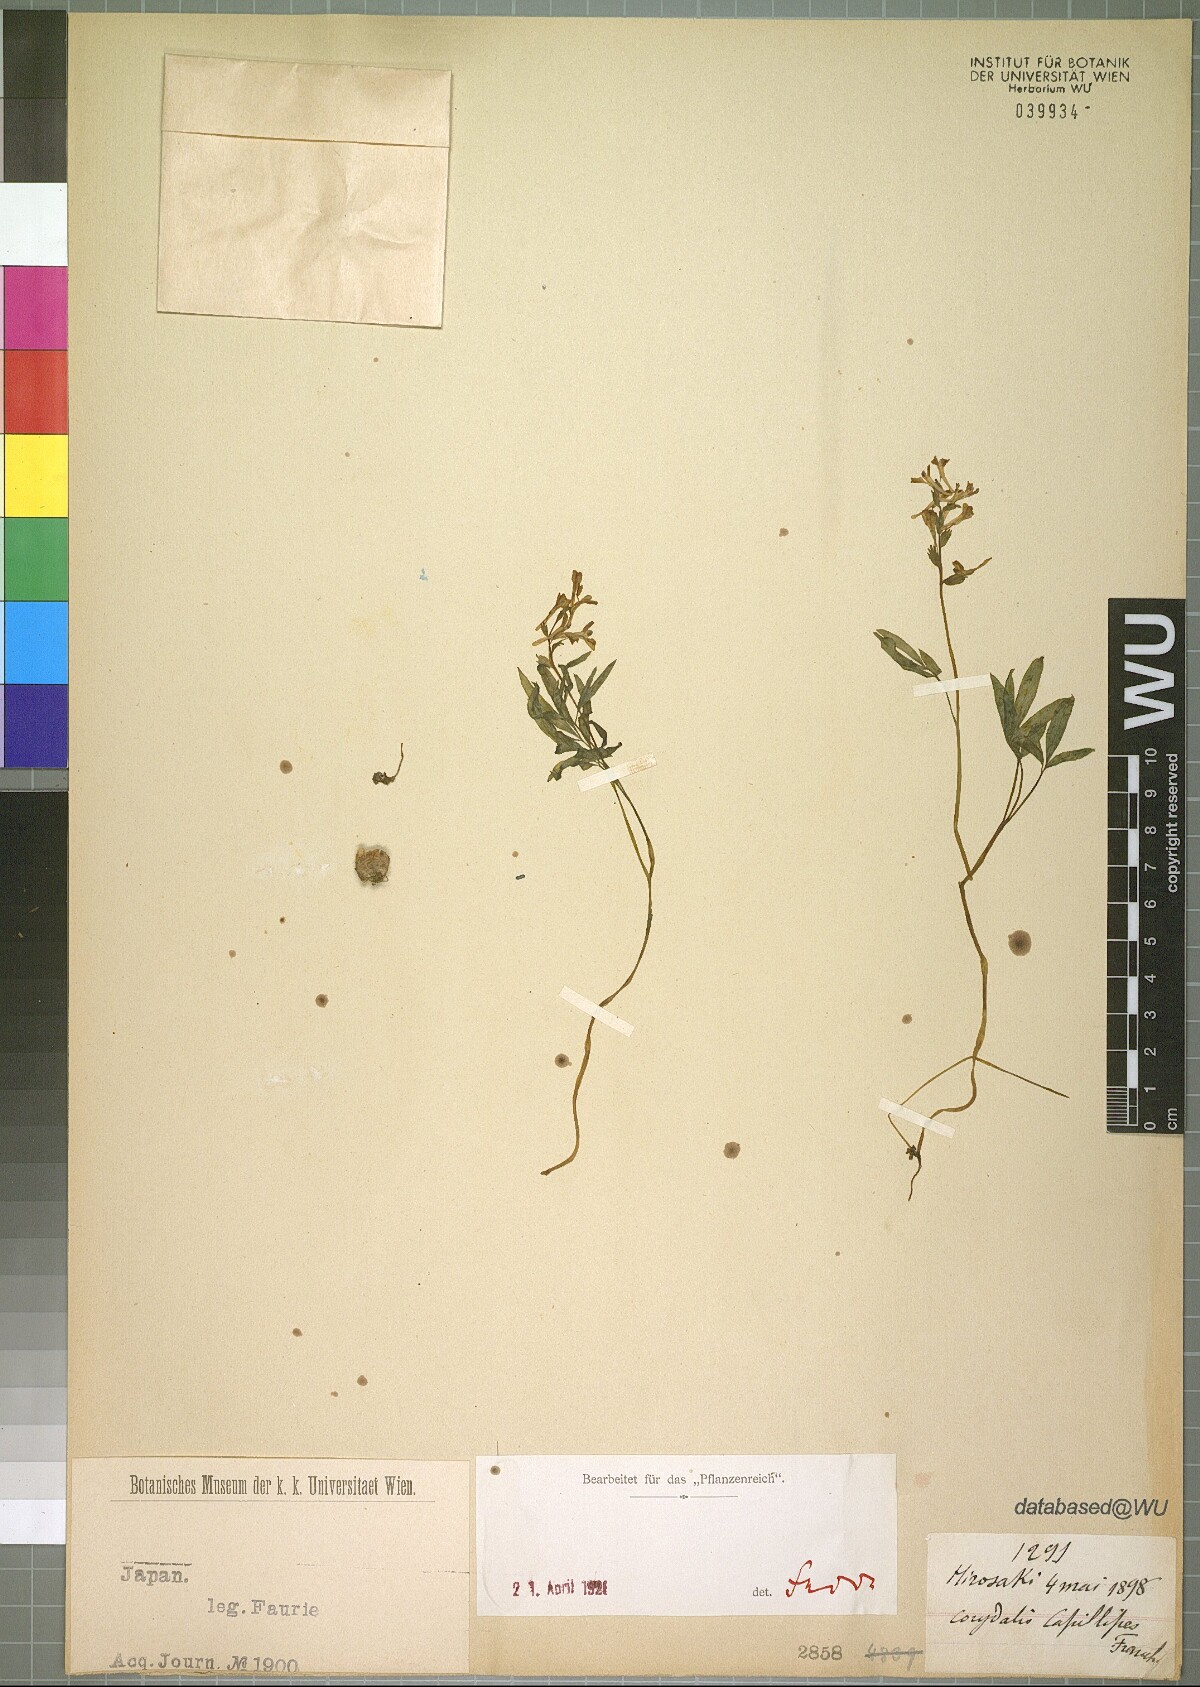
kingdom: Plantae
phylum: Tracheophyta
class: Magnoliopsida
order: Ranunculales
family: Papaveraceae
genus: Corydalis
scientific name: Corydalis orthoceras
